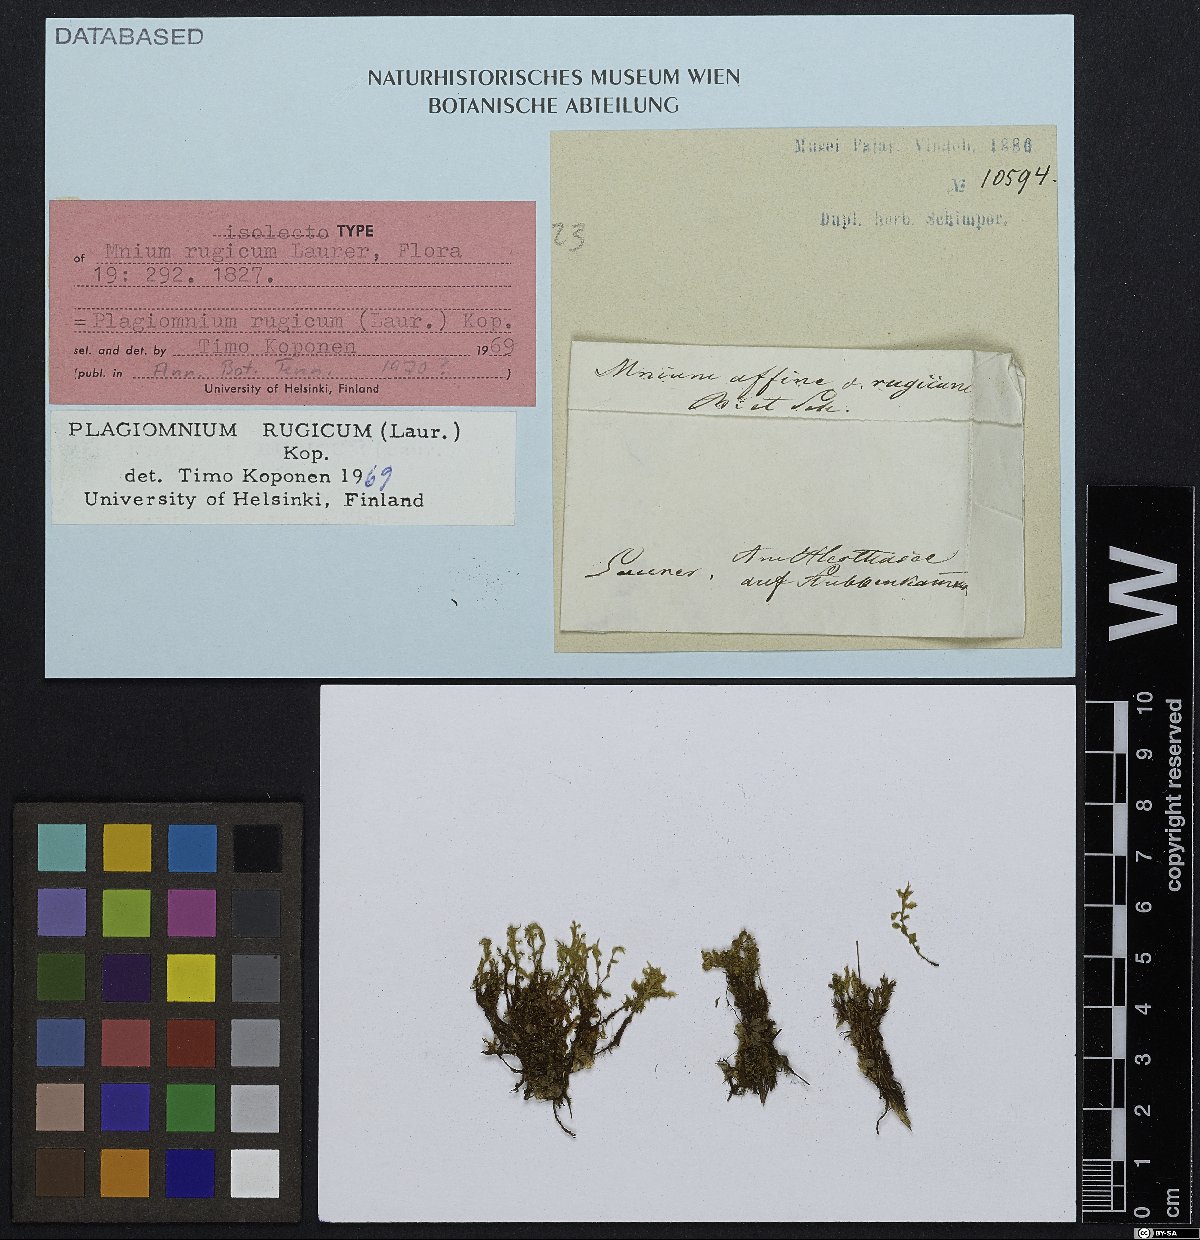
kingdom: Plantae
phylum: Bryophyta
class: Bryopsida
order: Bryales
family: Mniaceae
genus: Plagiomnium
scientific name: Plagiomnium ellipticum
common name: Marsh leafy moss
